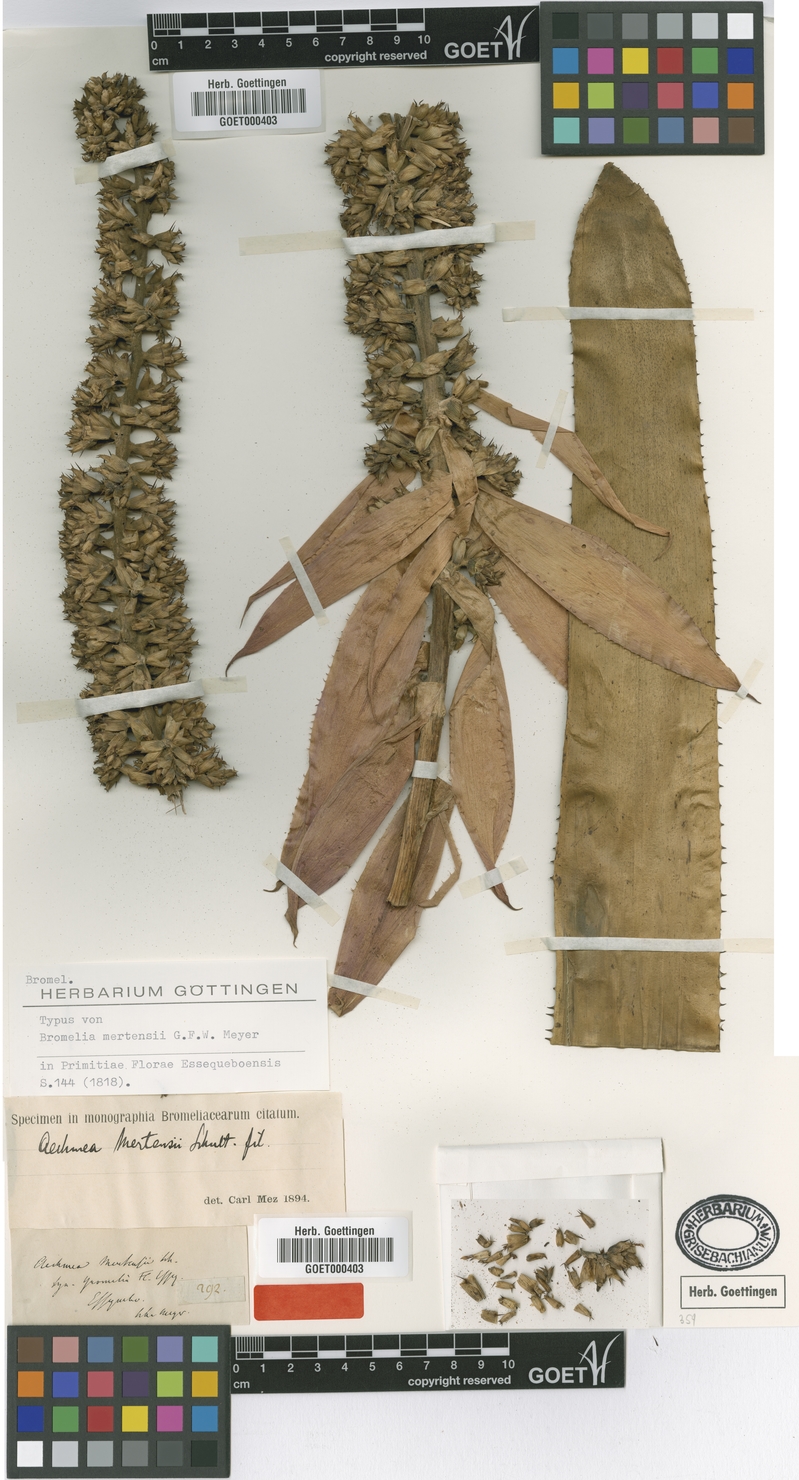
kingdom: Plantae
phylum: Tracheophyta
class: Liliopsida
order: Poales
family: Bromeliaceae
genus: Aechmea
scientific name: Aechmea mertensii
